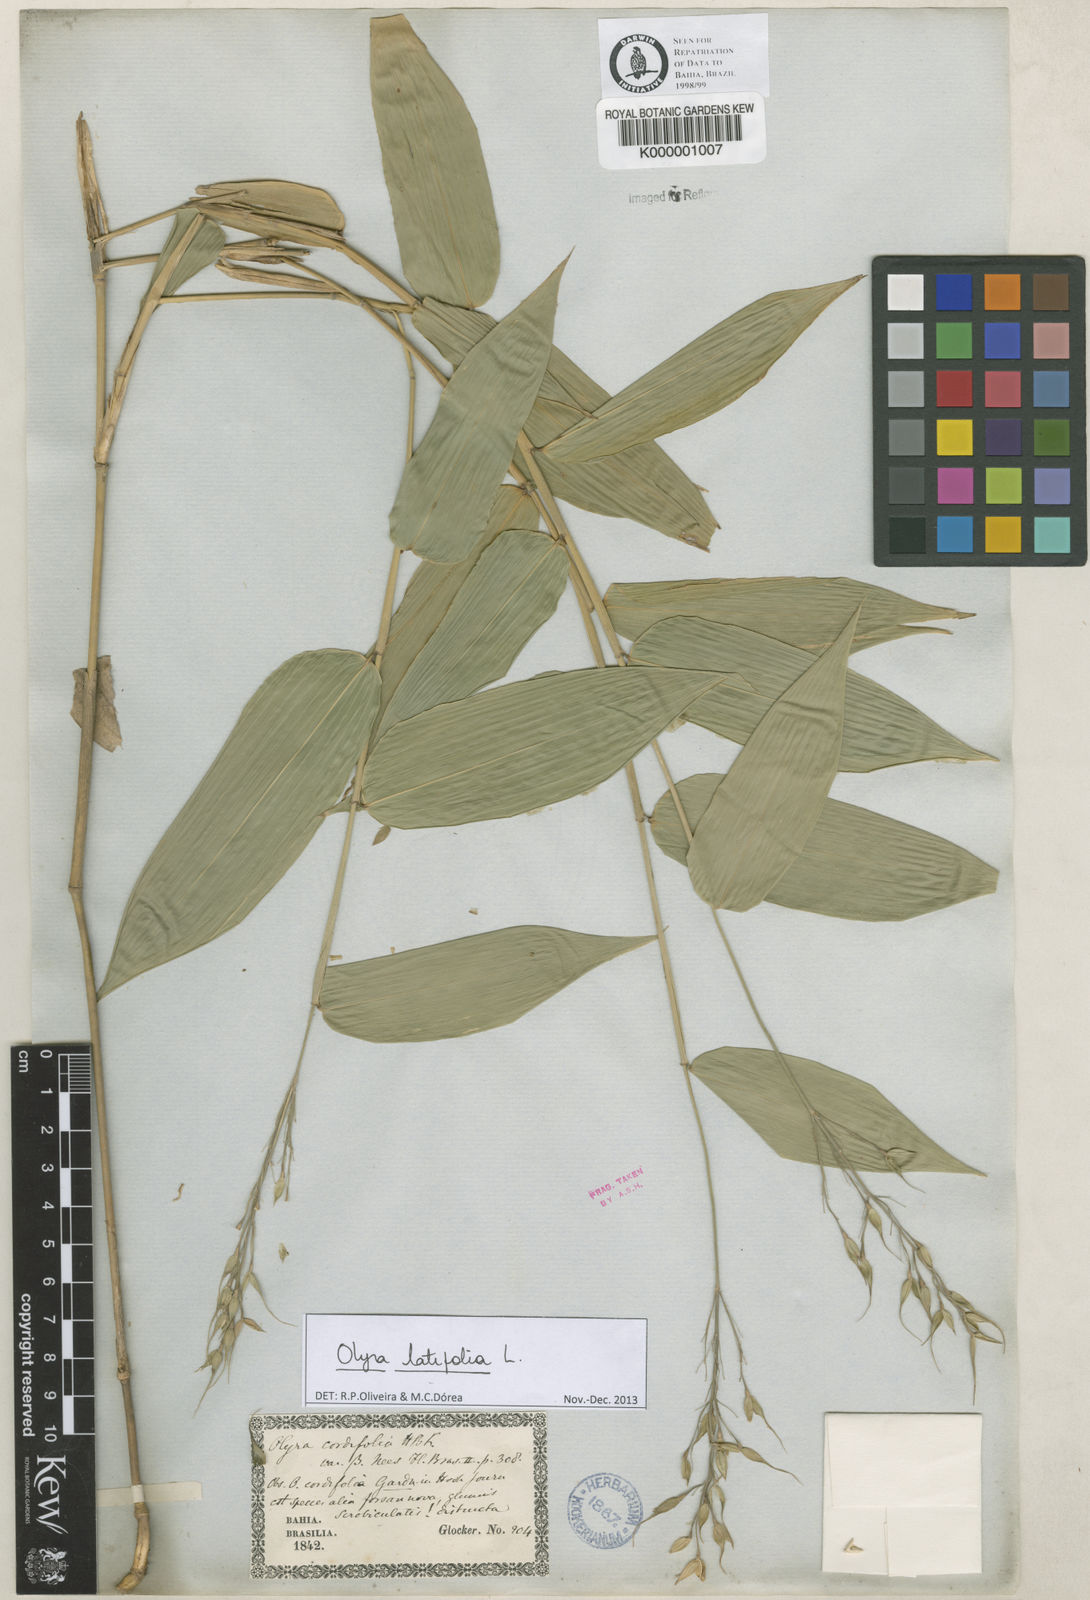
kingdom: Plantae
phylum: Tracheophyta
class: Liliopsida
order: Poales
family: Poaceae
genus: Olyra
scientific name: Olyra latifolia
